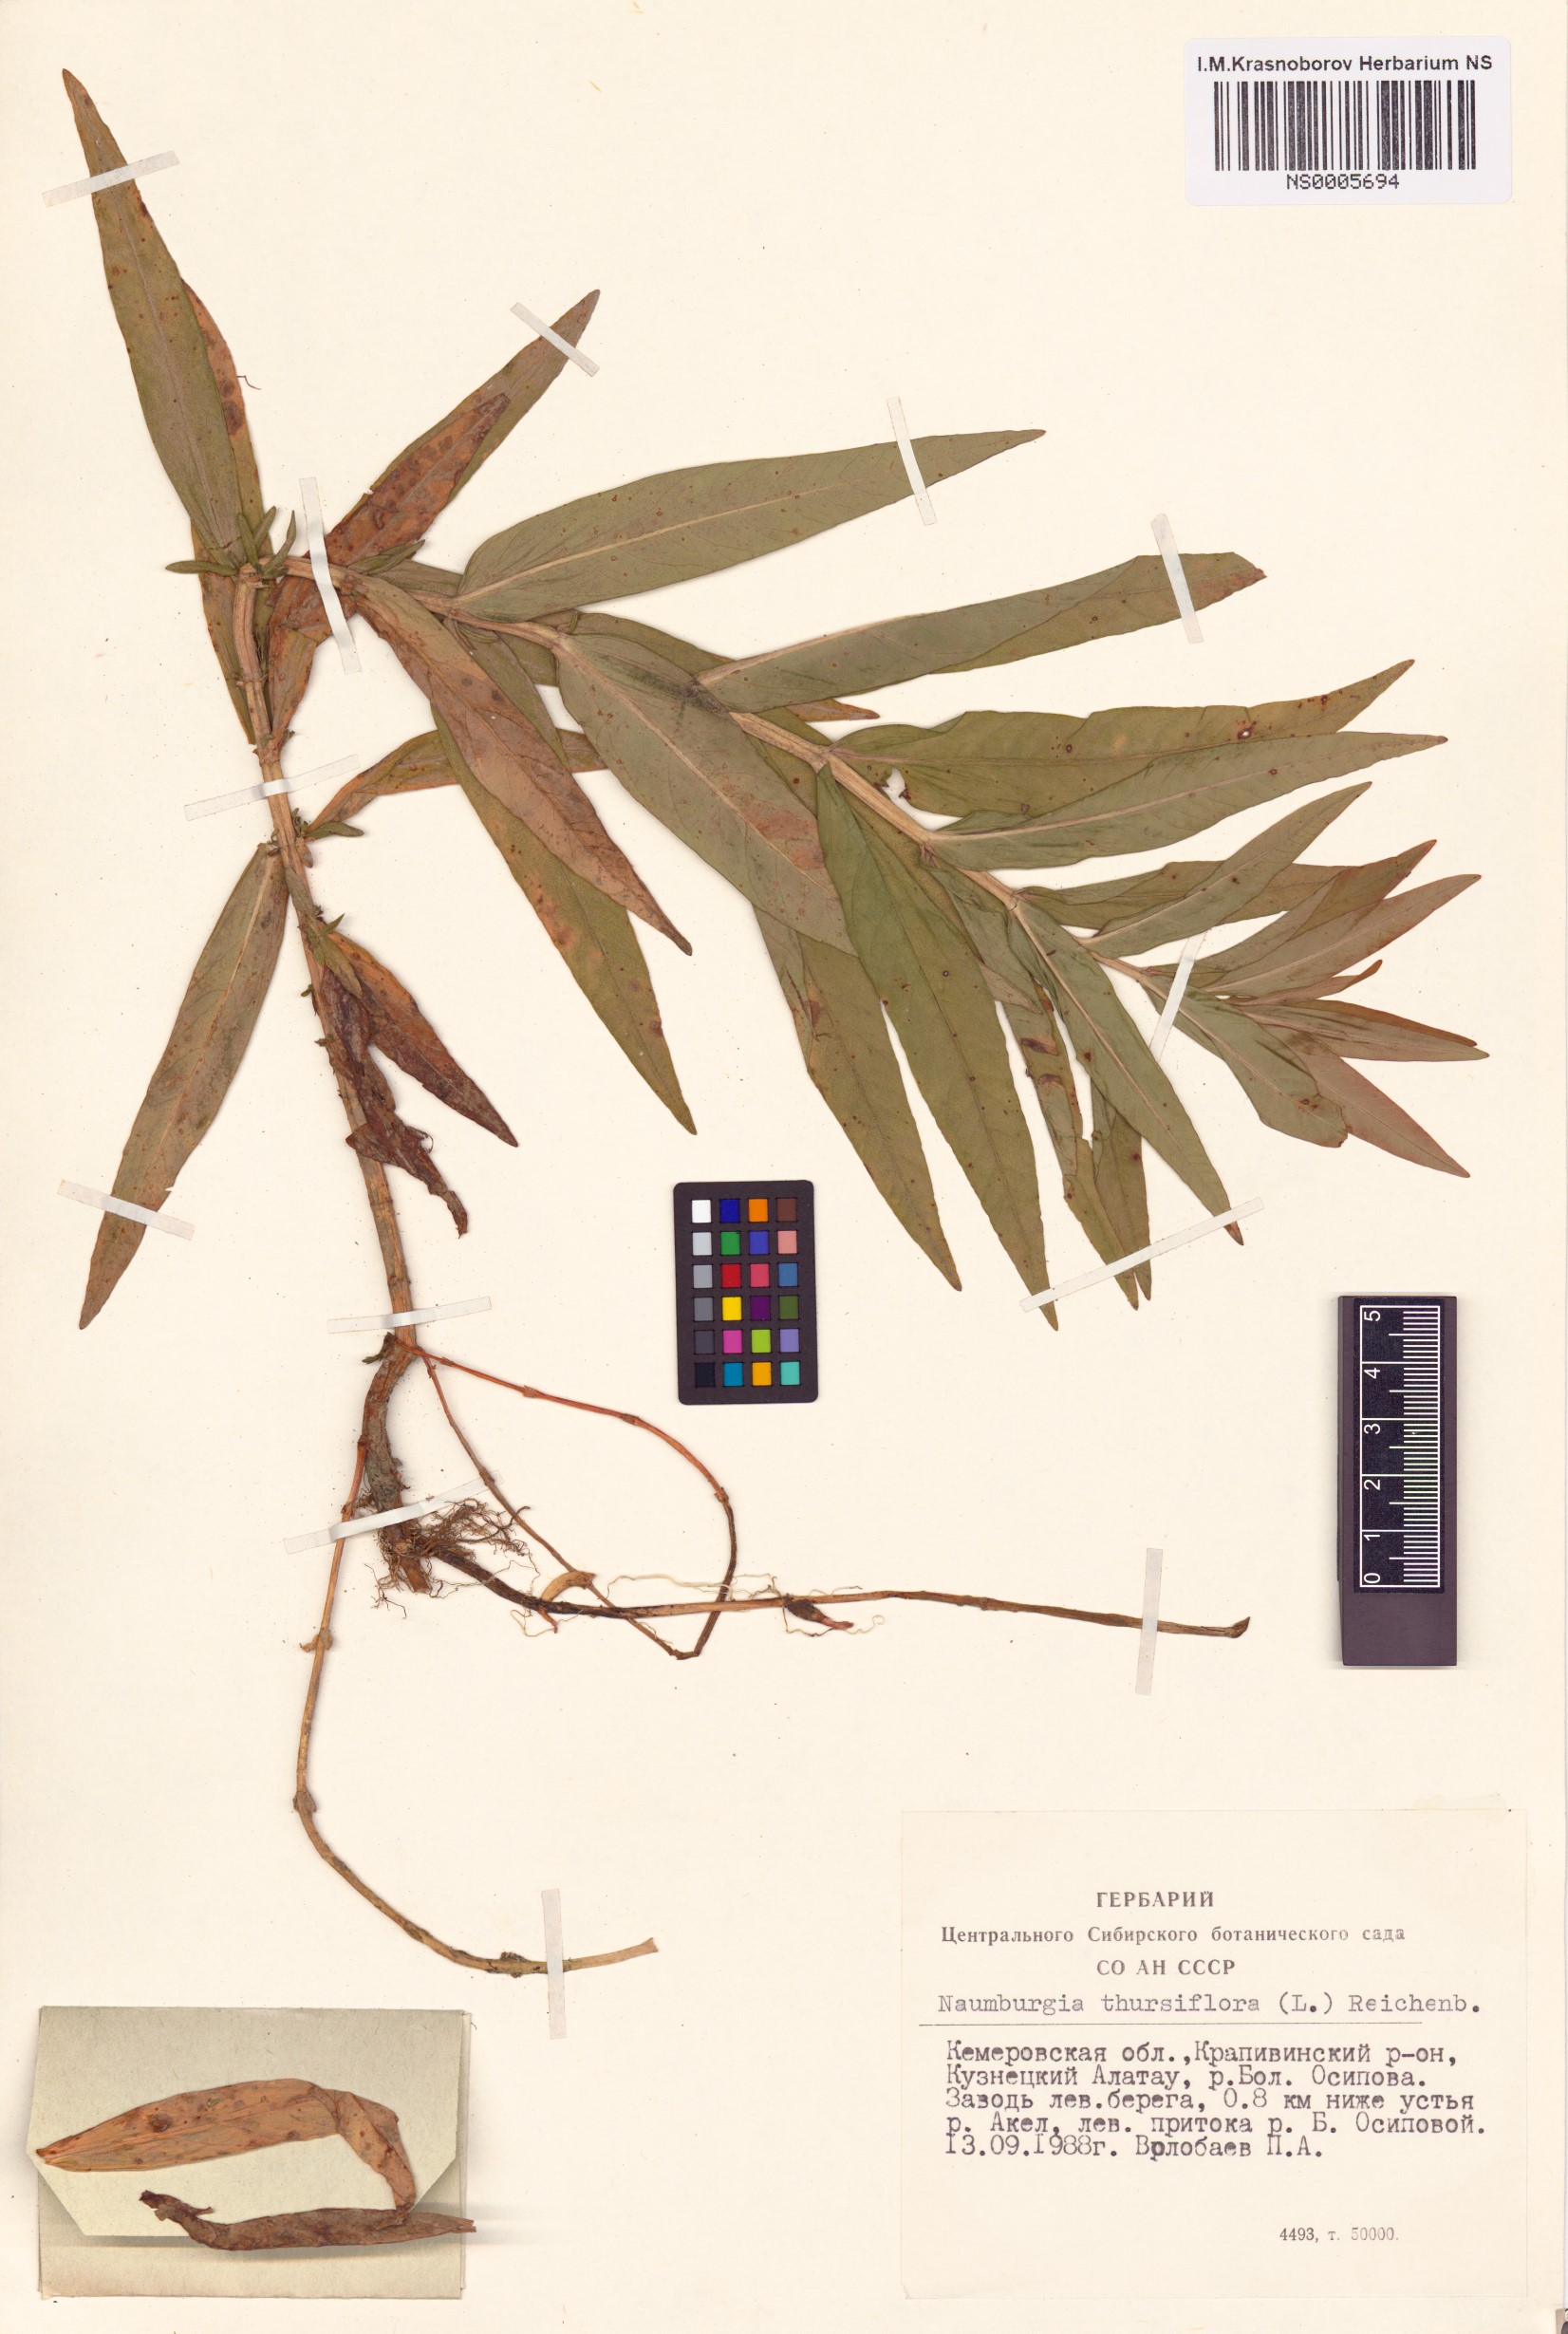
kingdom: Plantae
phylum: Tracheophyta
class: Magnoliopsida
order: Ericales
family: Primulaceae
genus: Lysimachia
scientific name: Lysimachia thyrsiflora
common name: Tufted loosestrife
